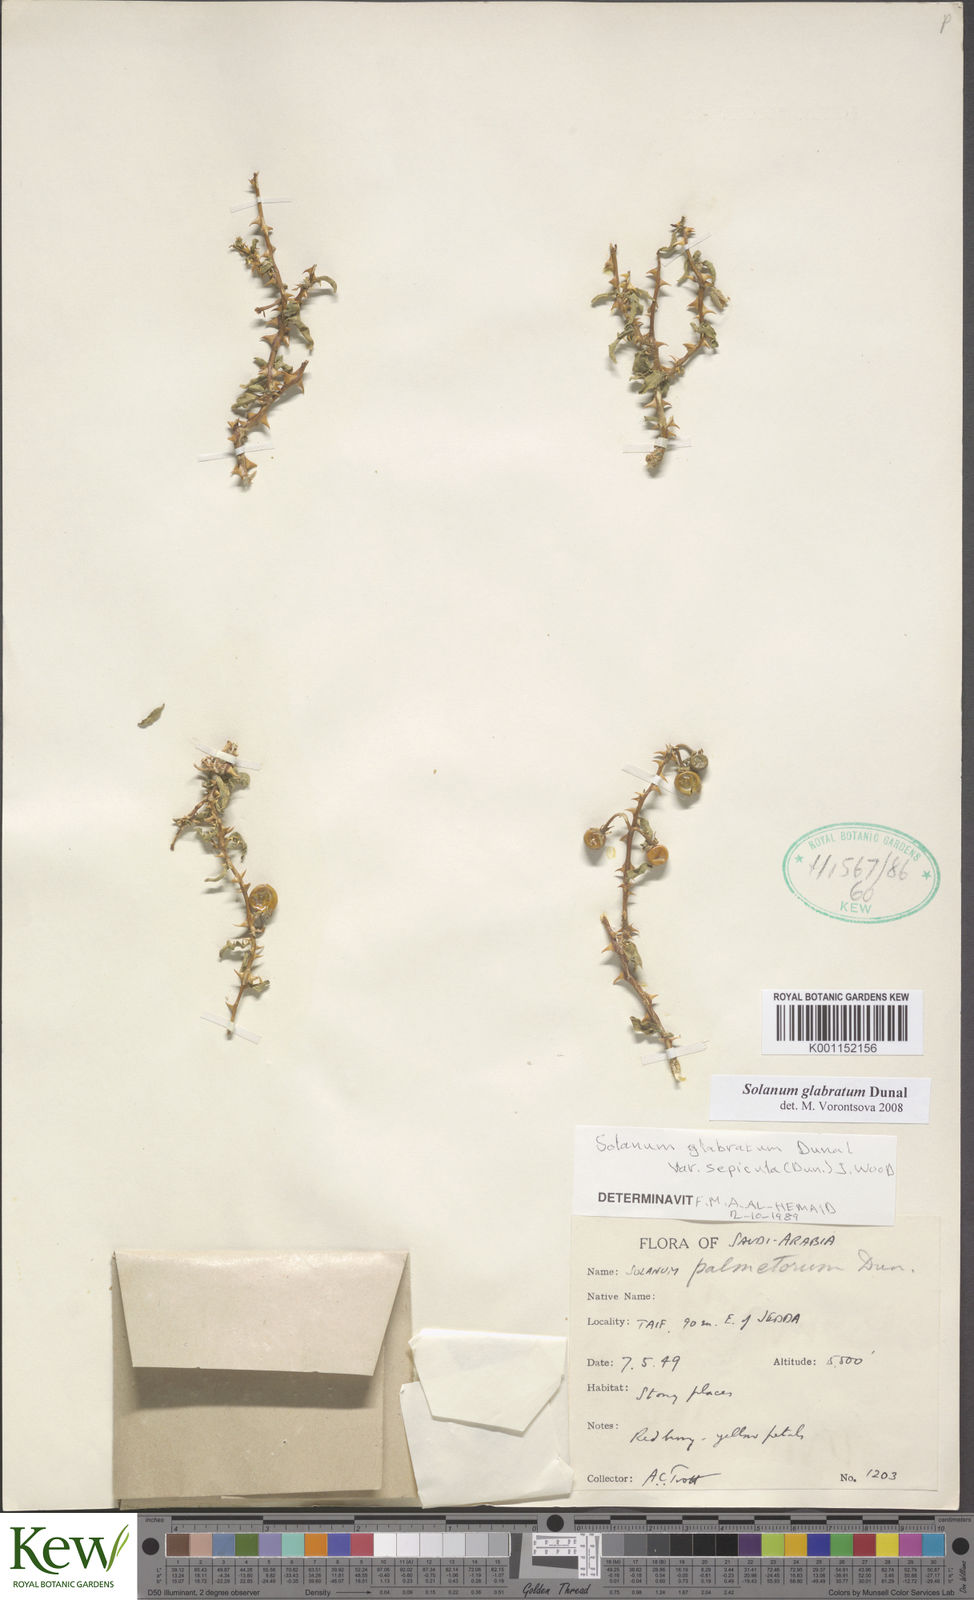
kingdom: Plantae
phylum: Tracheophyta
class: Magnoliopsida
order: Solanales
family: Solanaceae
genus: Solanum
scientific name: Solanum glabratum
